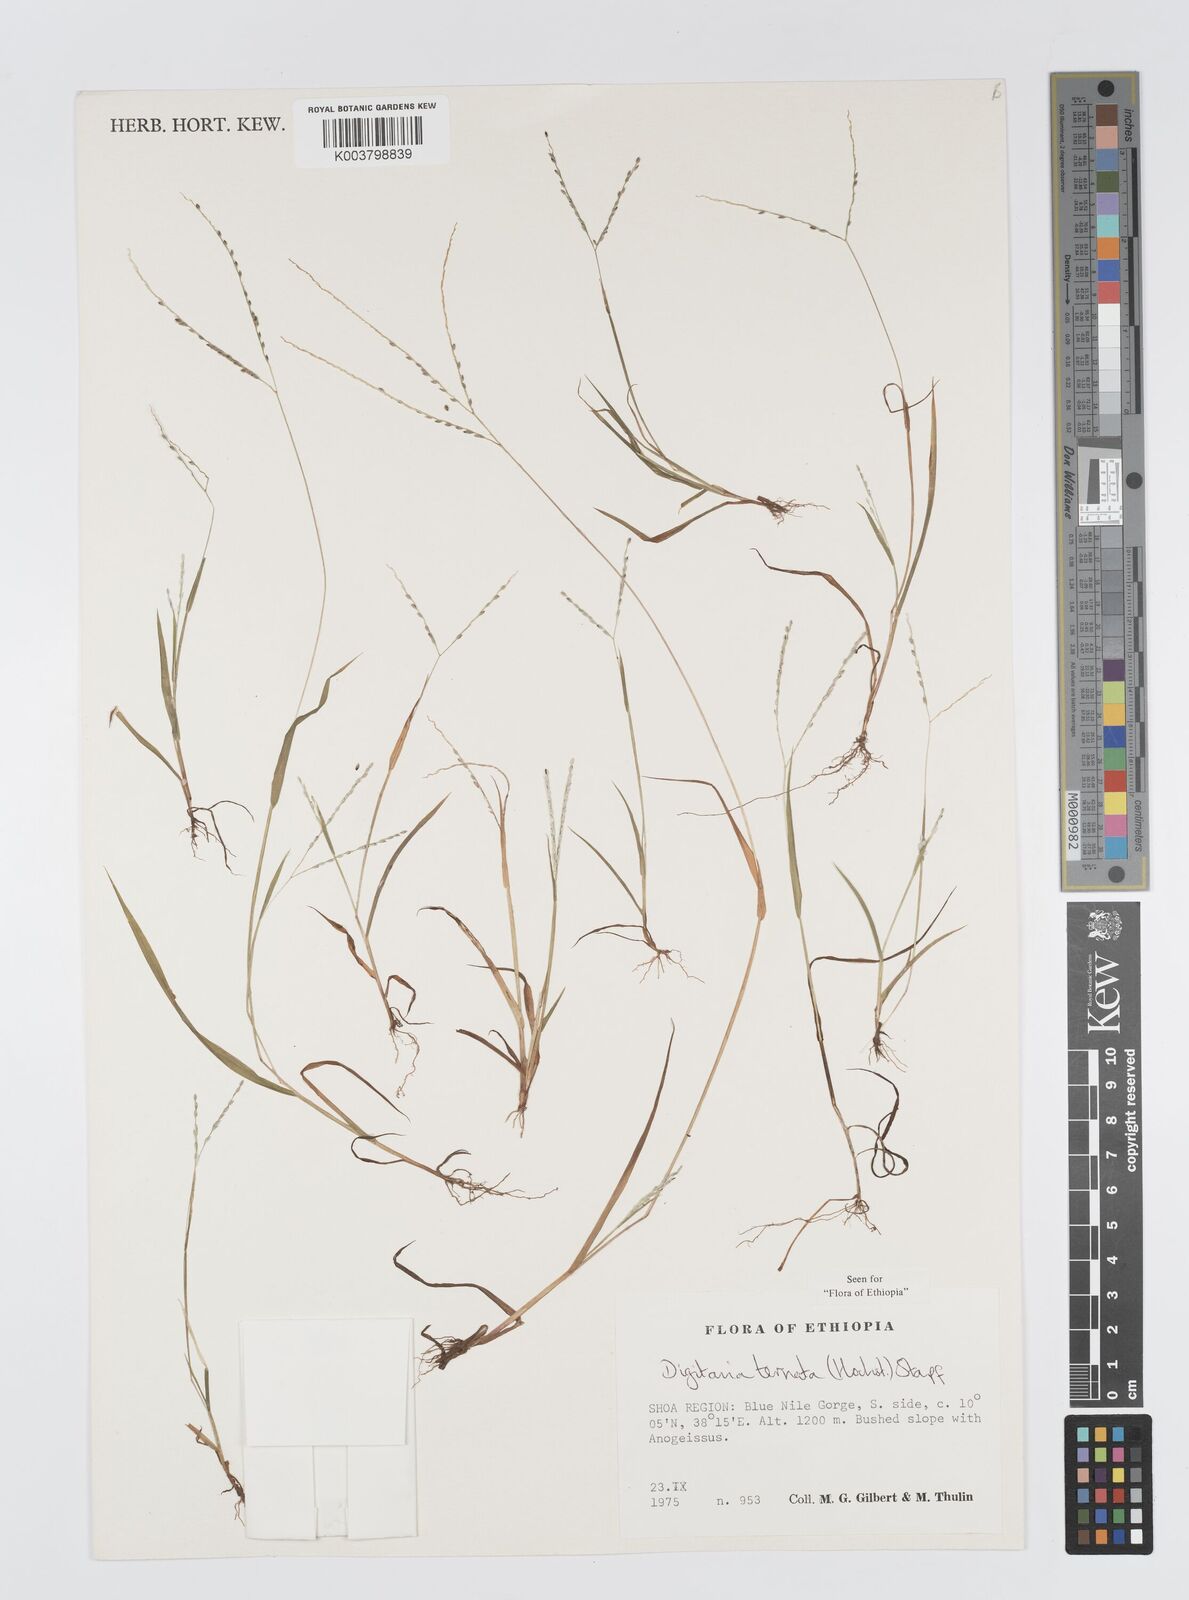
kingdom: Plantae
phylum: Tracheophyta
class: Liliopsida
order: Poales
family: Poaceae
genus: Digitaria
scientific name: Digitaria ternata
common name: Blackseed crabgrass
